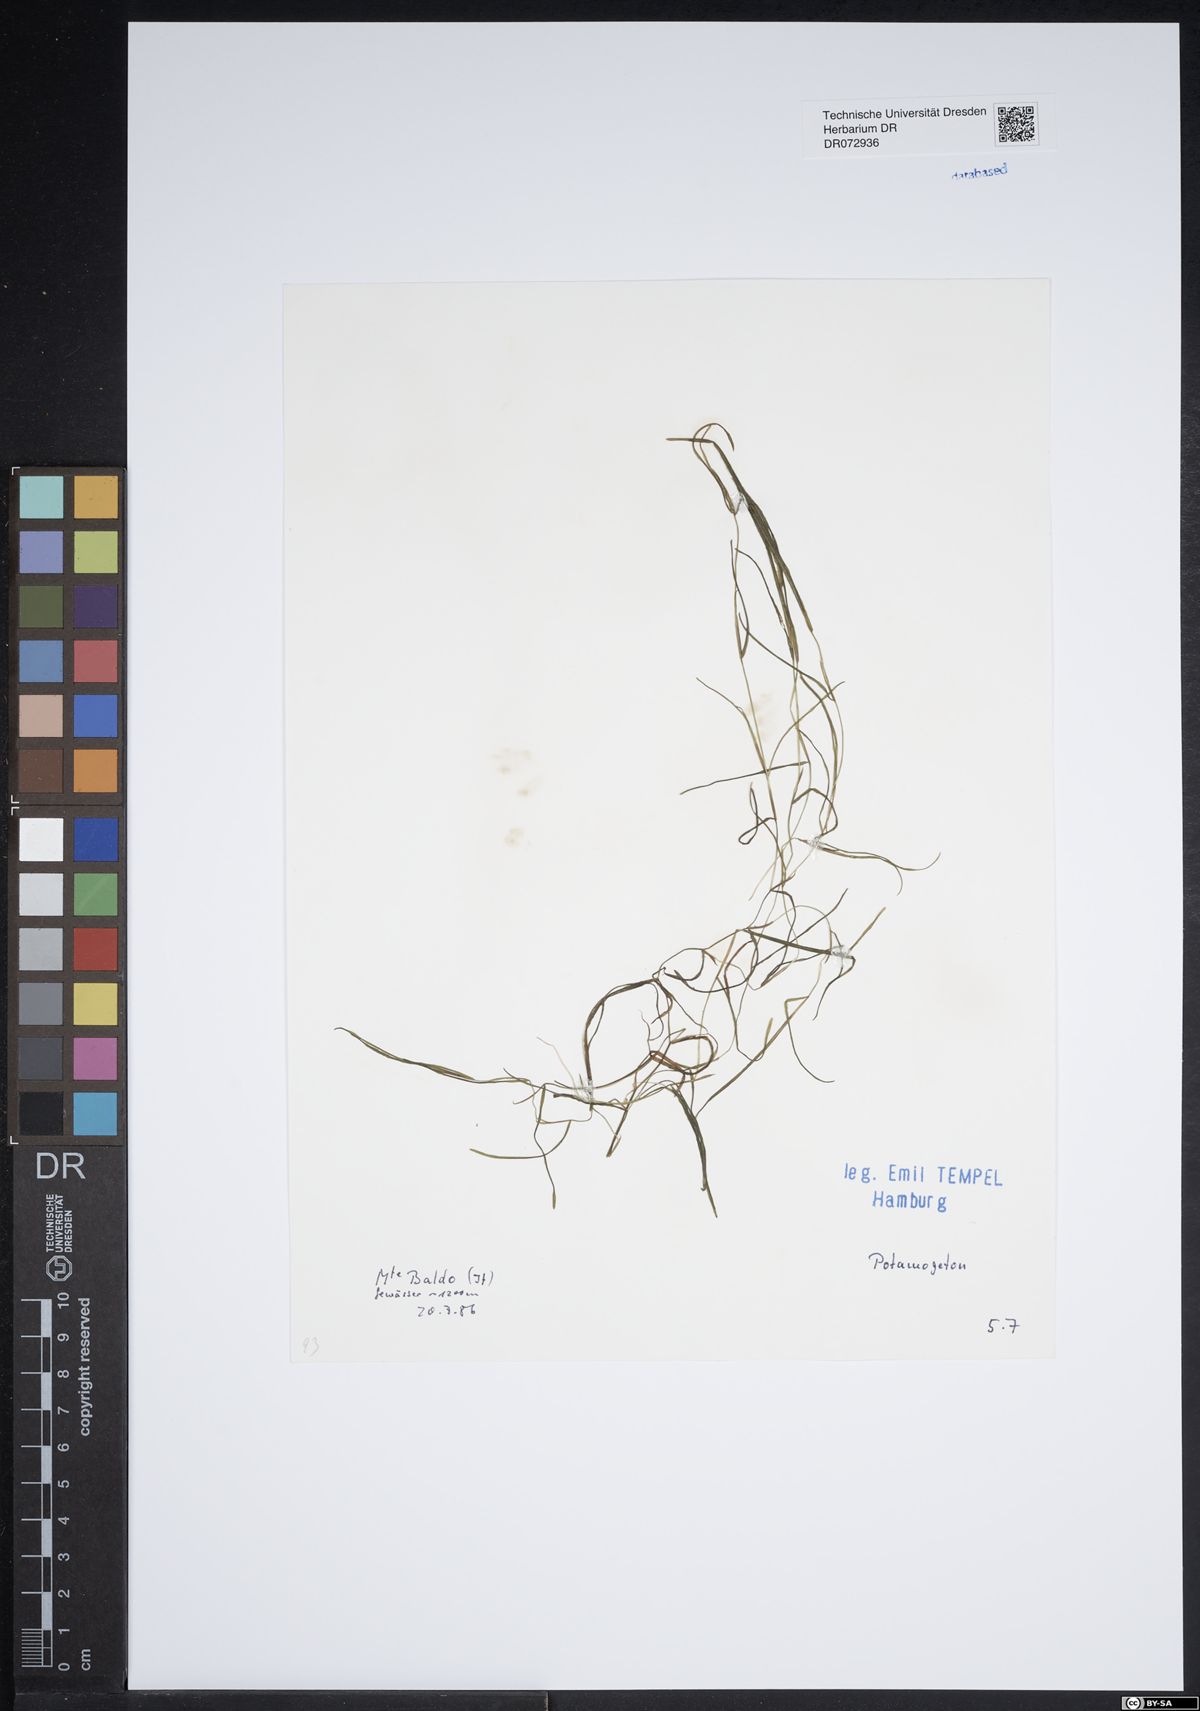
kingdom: Plantae
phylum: Tracheophyta
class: Liliopsida
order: Alismatales
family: Potamogetonaceae
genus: Potamogeton
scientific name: Potamogeton
